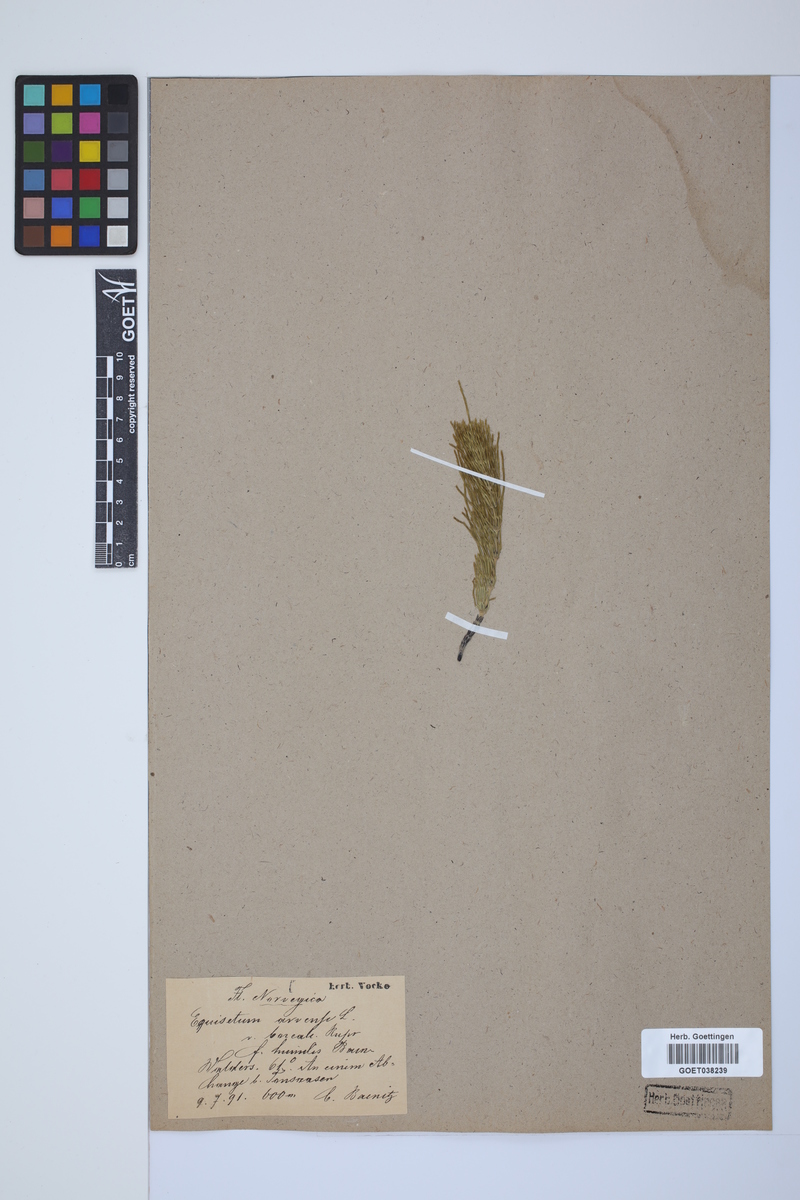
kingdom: Plantae
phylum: Tracheophyta
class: Polypodiopsida
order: Equisetales
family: Equisetaceae
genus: Equisetum
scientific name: Equisetum arvense
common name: Field horsetail
